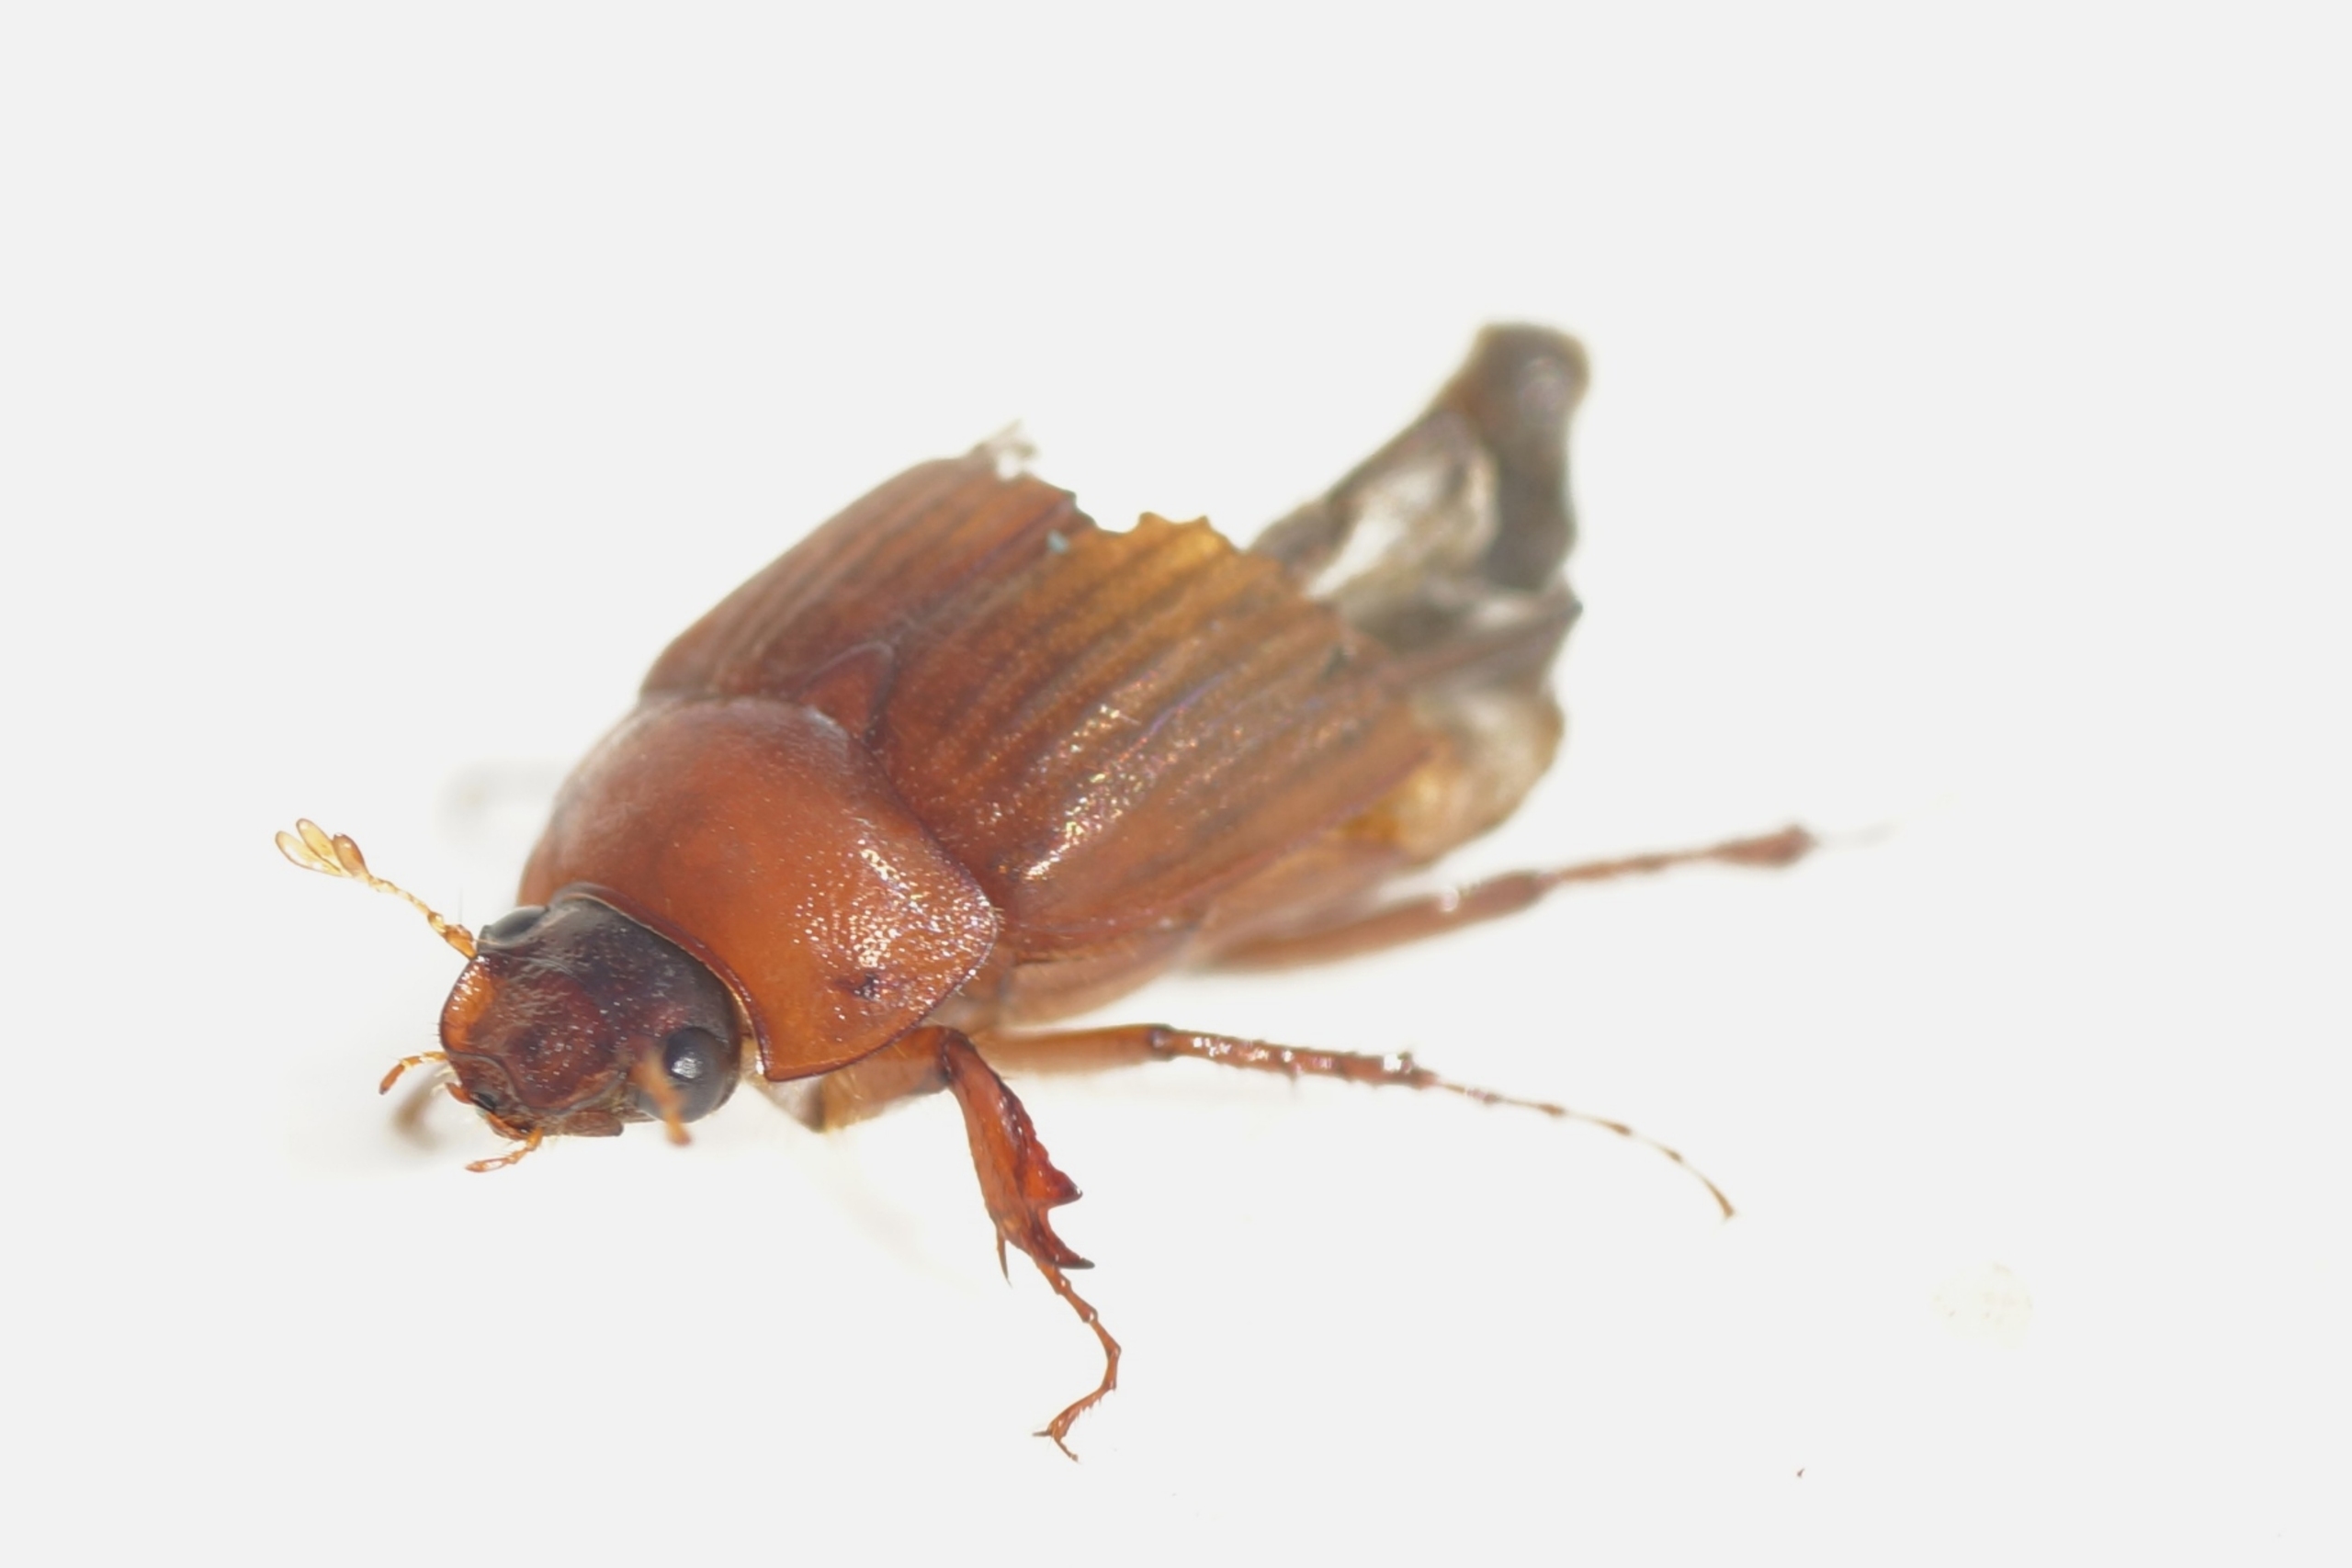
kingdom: Animalia
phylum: Arthropoda
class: Insecta
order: Coleoptera
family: Scarabaeidae
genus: Serica
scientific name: Serica brunnea
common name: Natoldenborre
